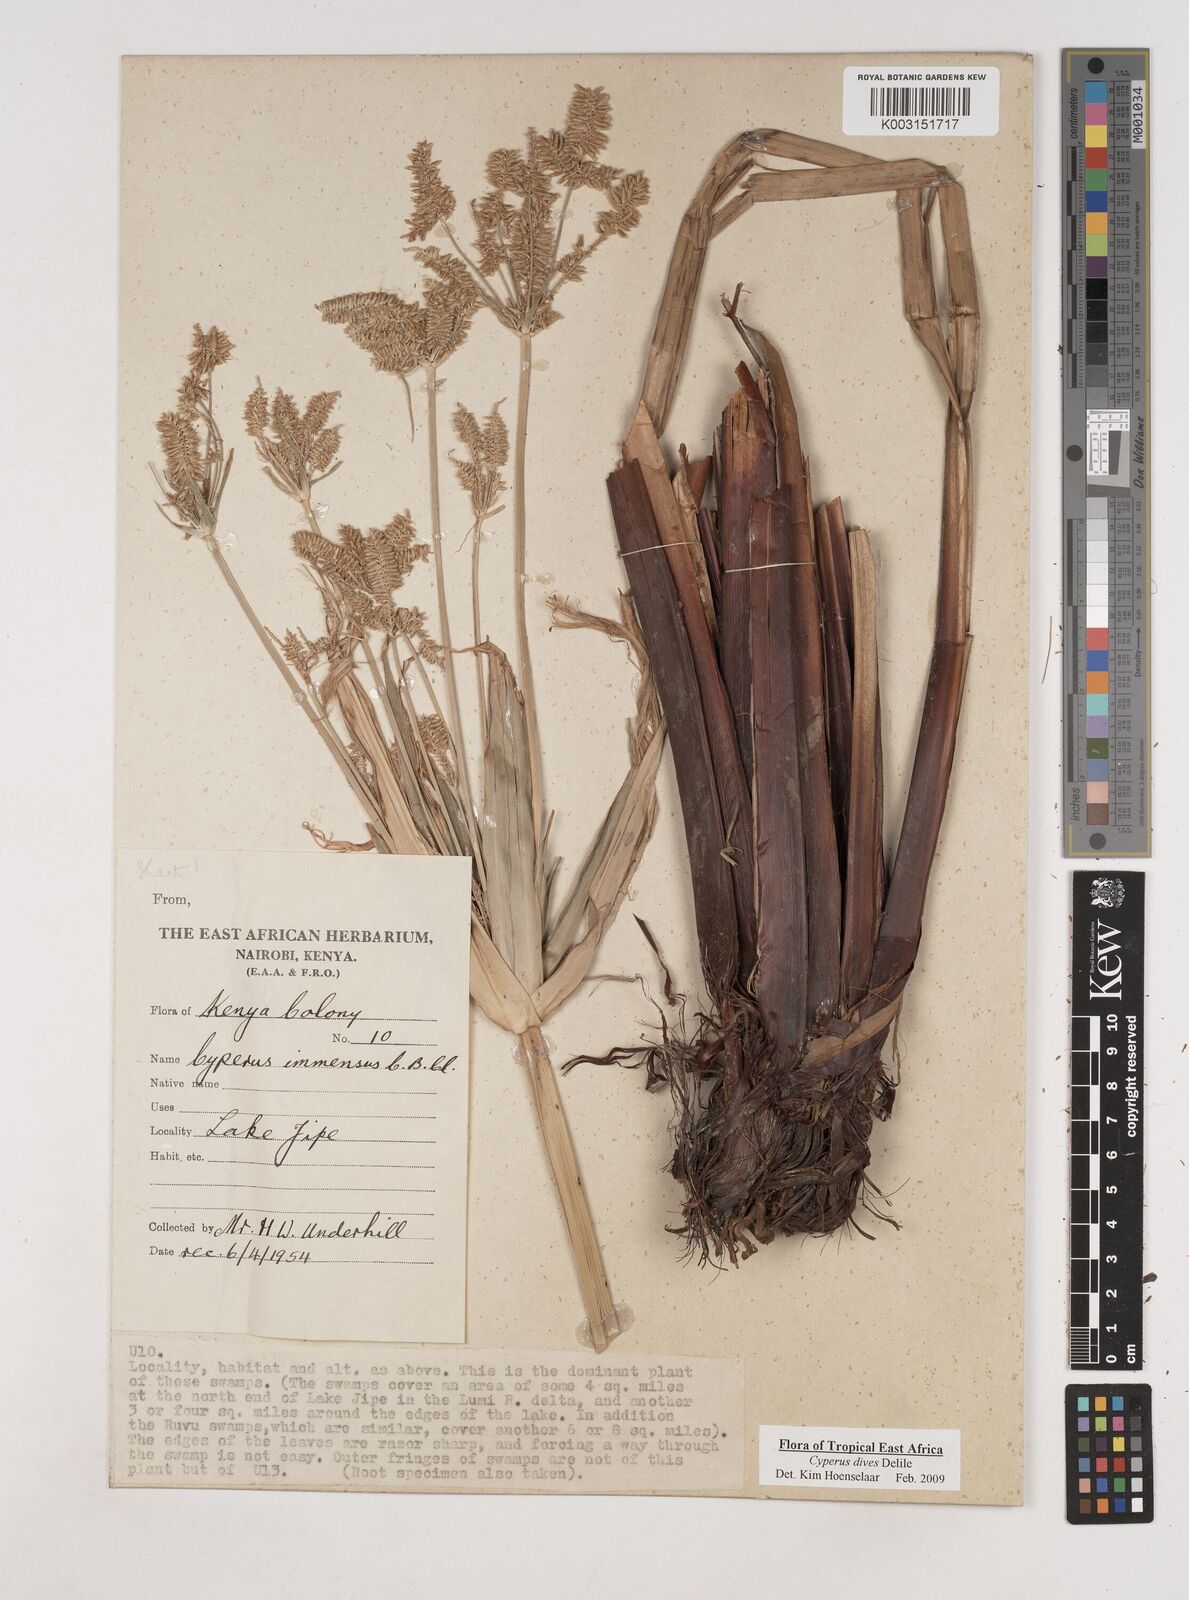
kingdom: Plantae
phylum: Tracheophyta
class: Liliopsida
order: Poales
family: Cyperaceae
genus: Cyperus
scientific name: Cyperus dives
